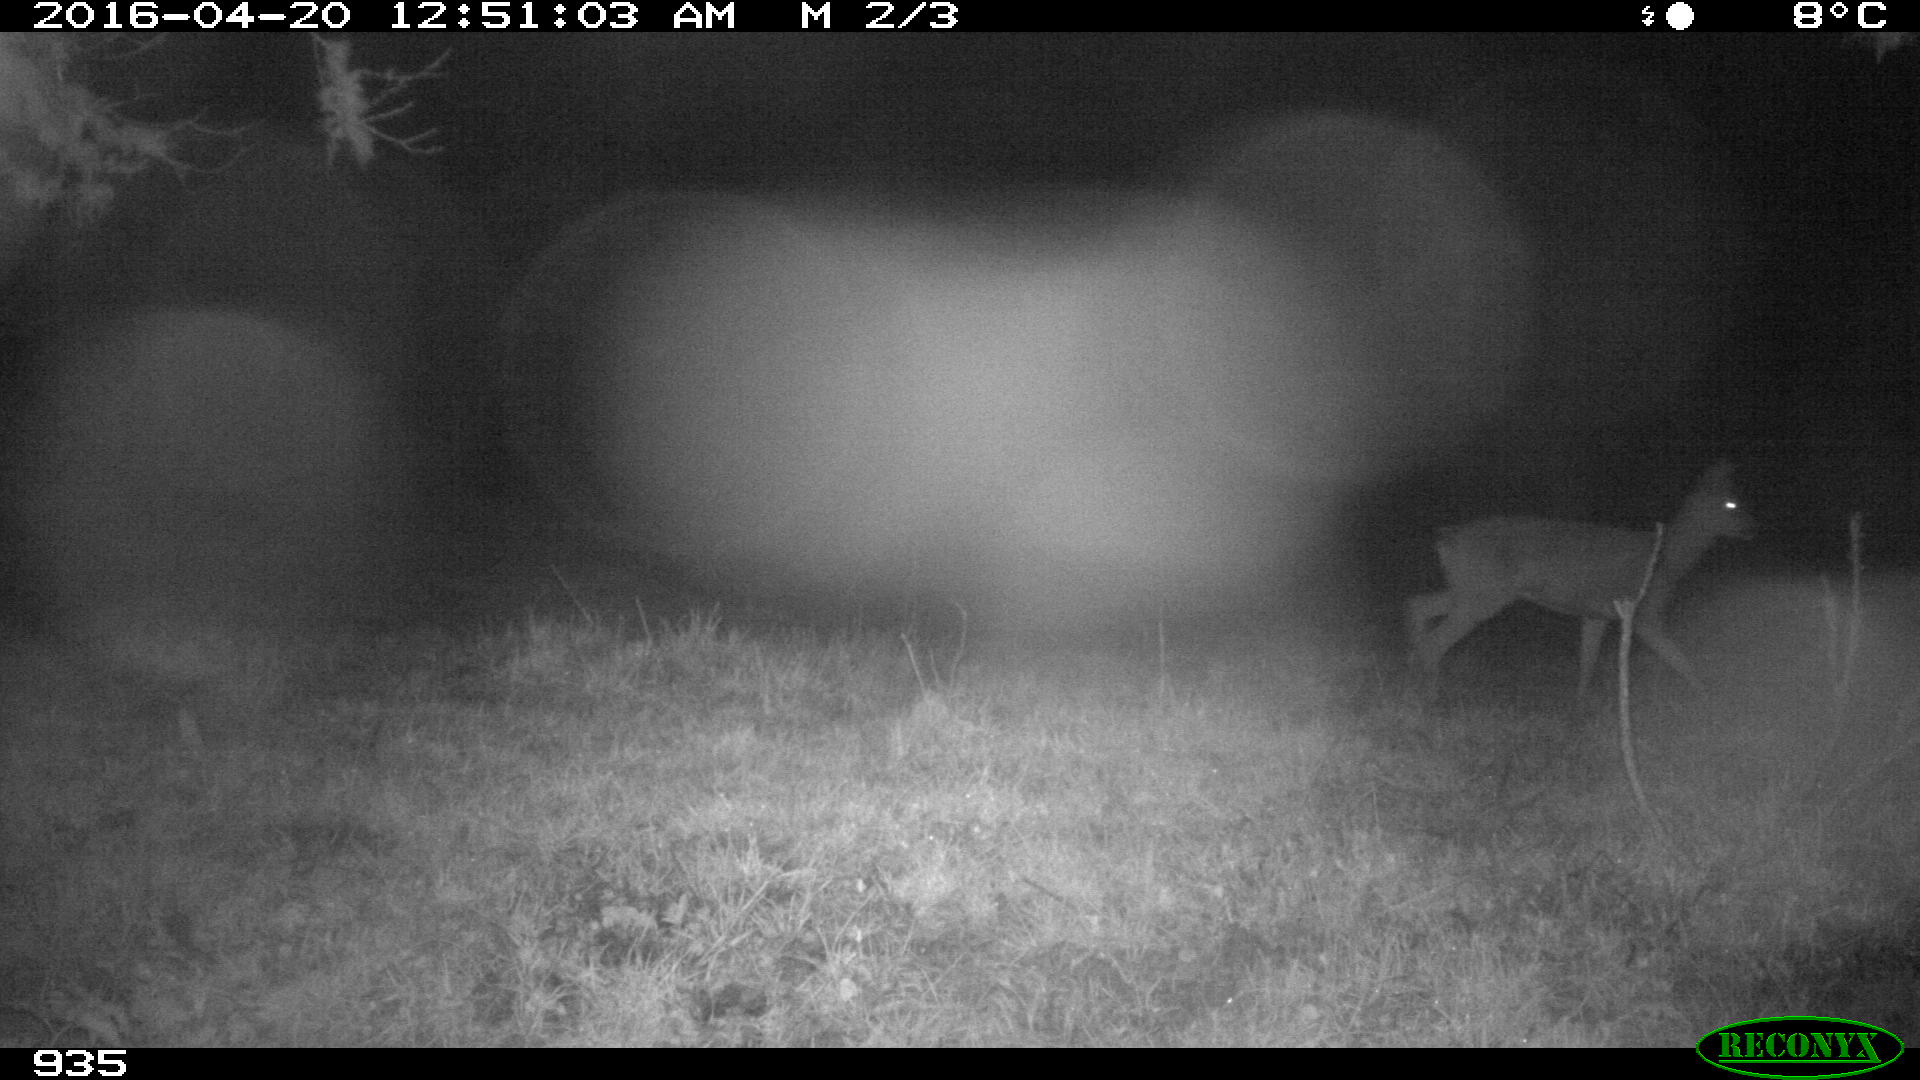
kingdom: Animalia
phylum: Chordata
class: Mammalia
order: Artiodactyla
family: Cervidae
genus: Capreolus
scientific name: Capreolus capreolus
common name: Western roe deer
